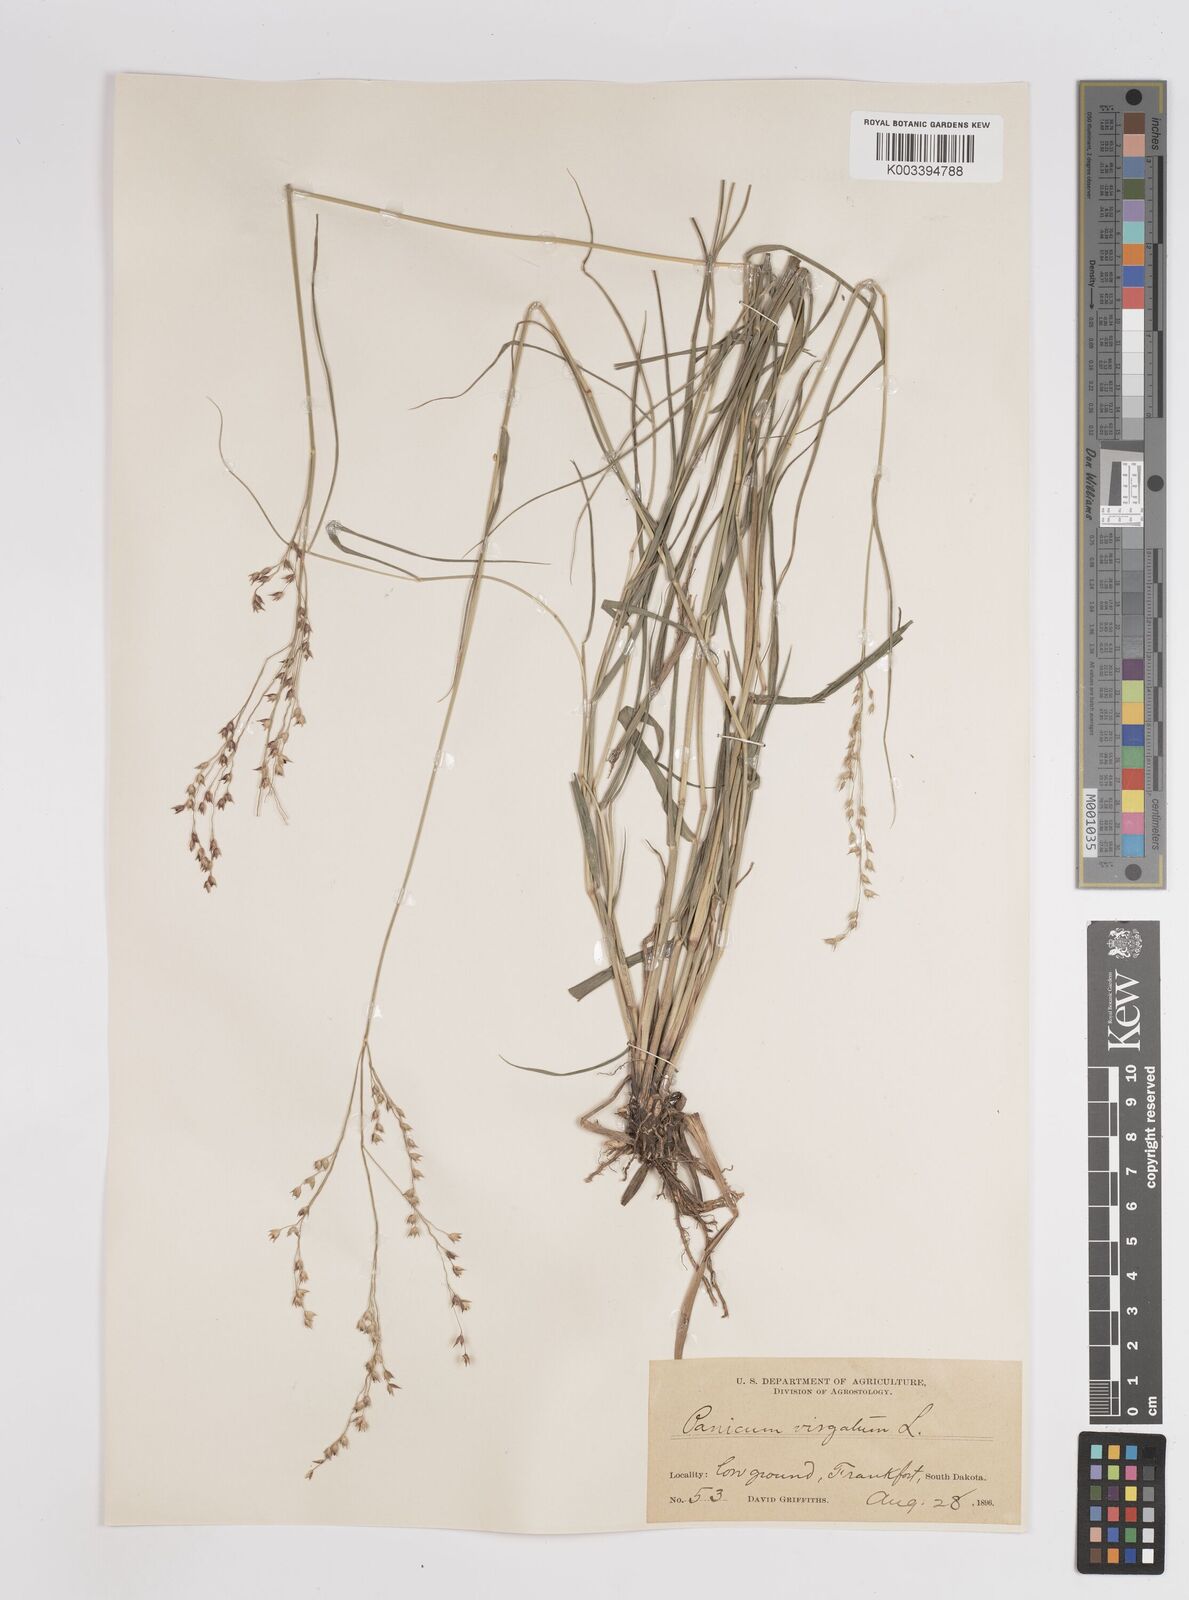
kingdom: Plantae
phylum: Tracheophyta
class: Liliopsida
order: Poales
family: Poaceae
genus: Panicum
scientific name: Panicum virgatum
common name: Switchgrass
